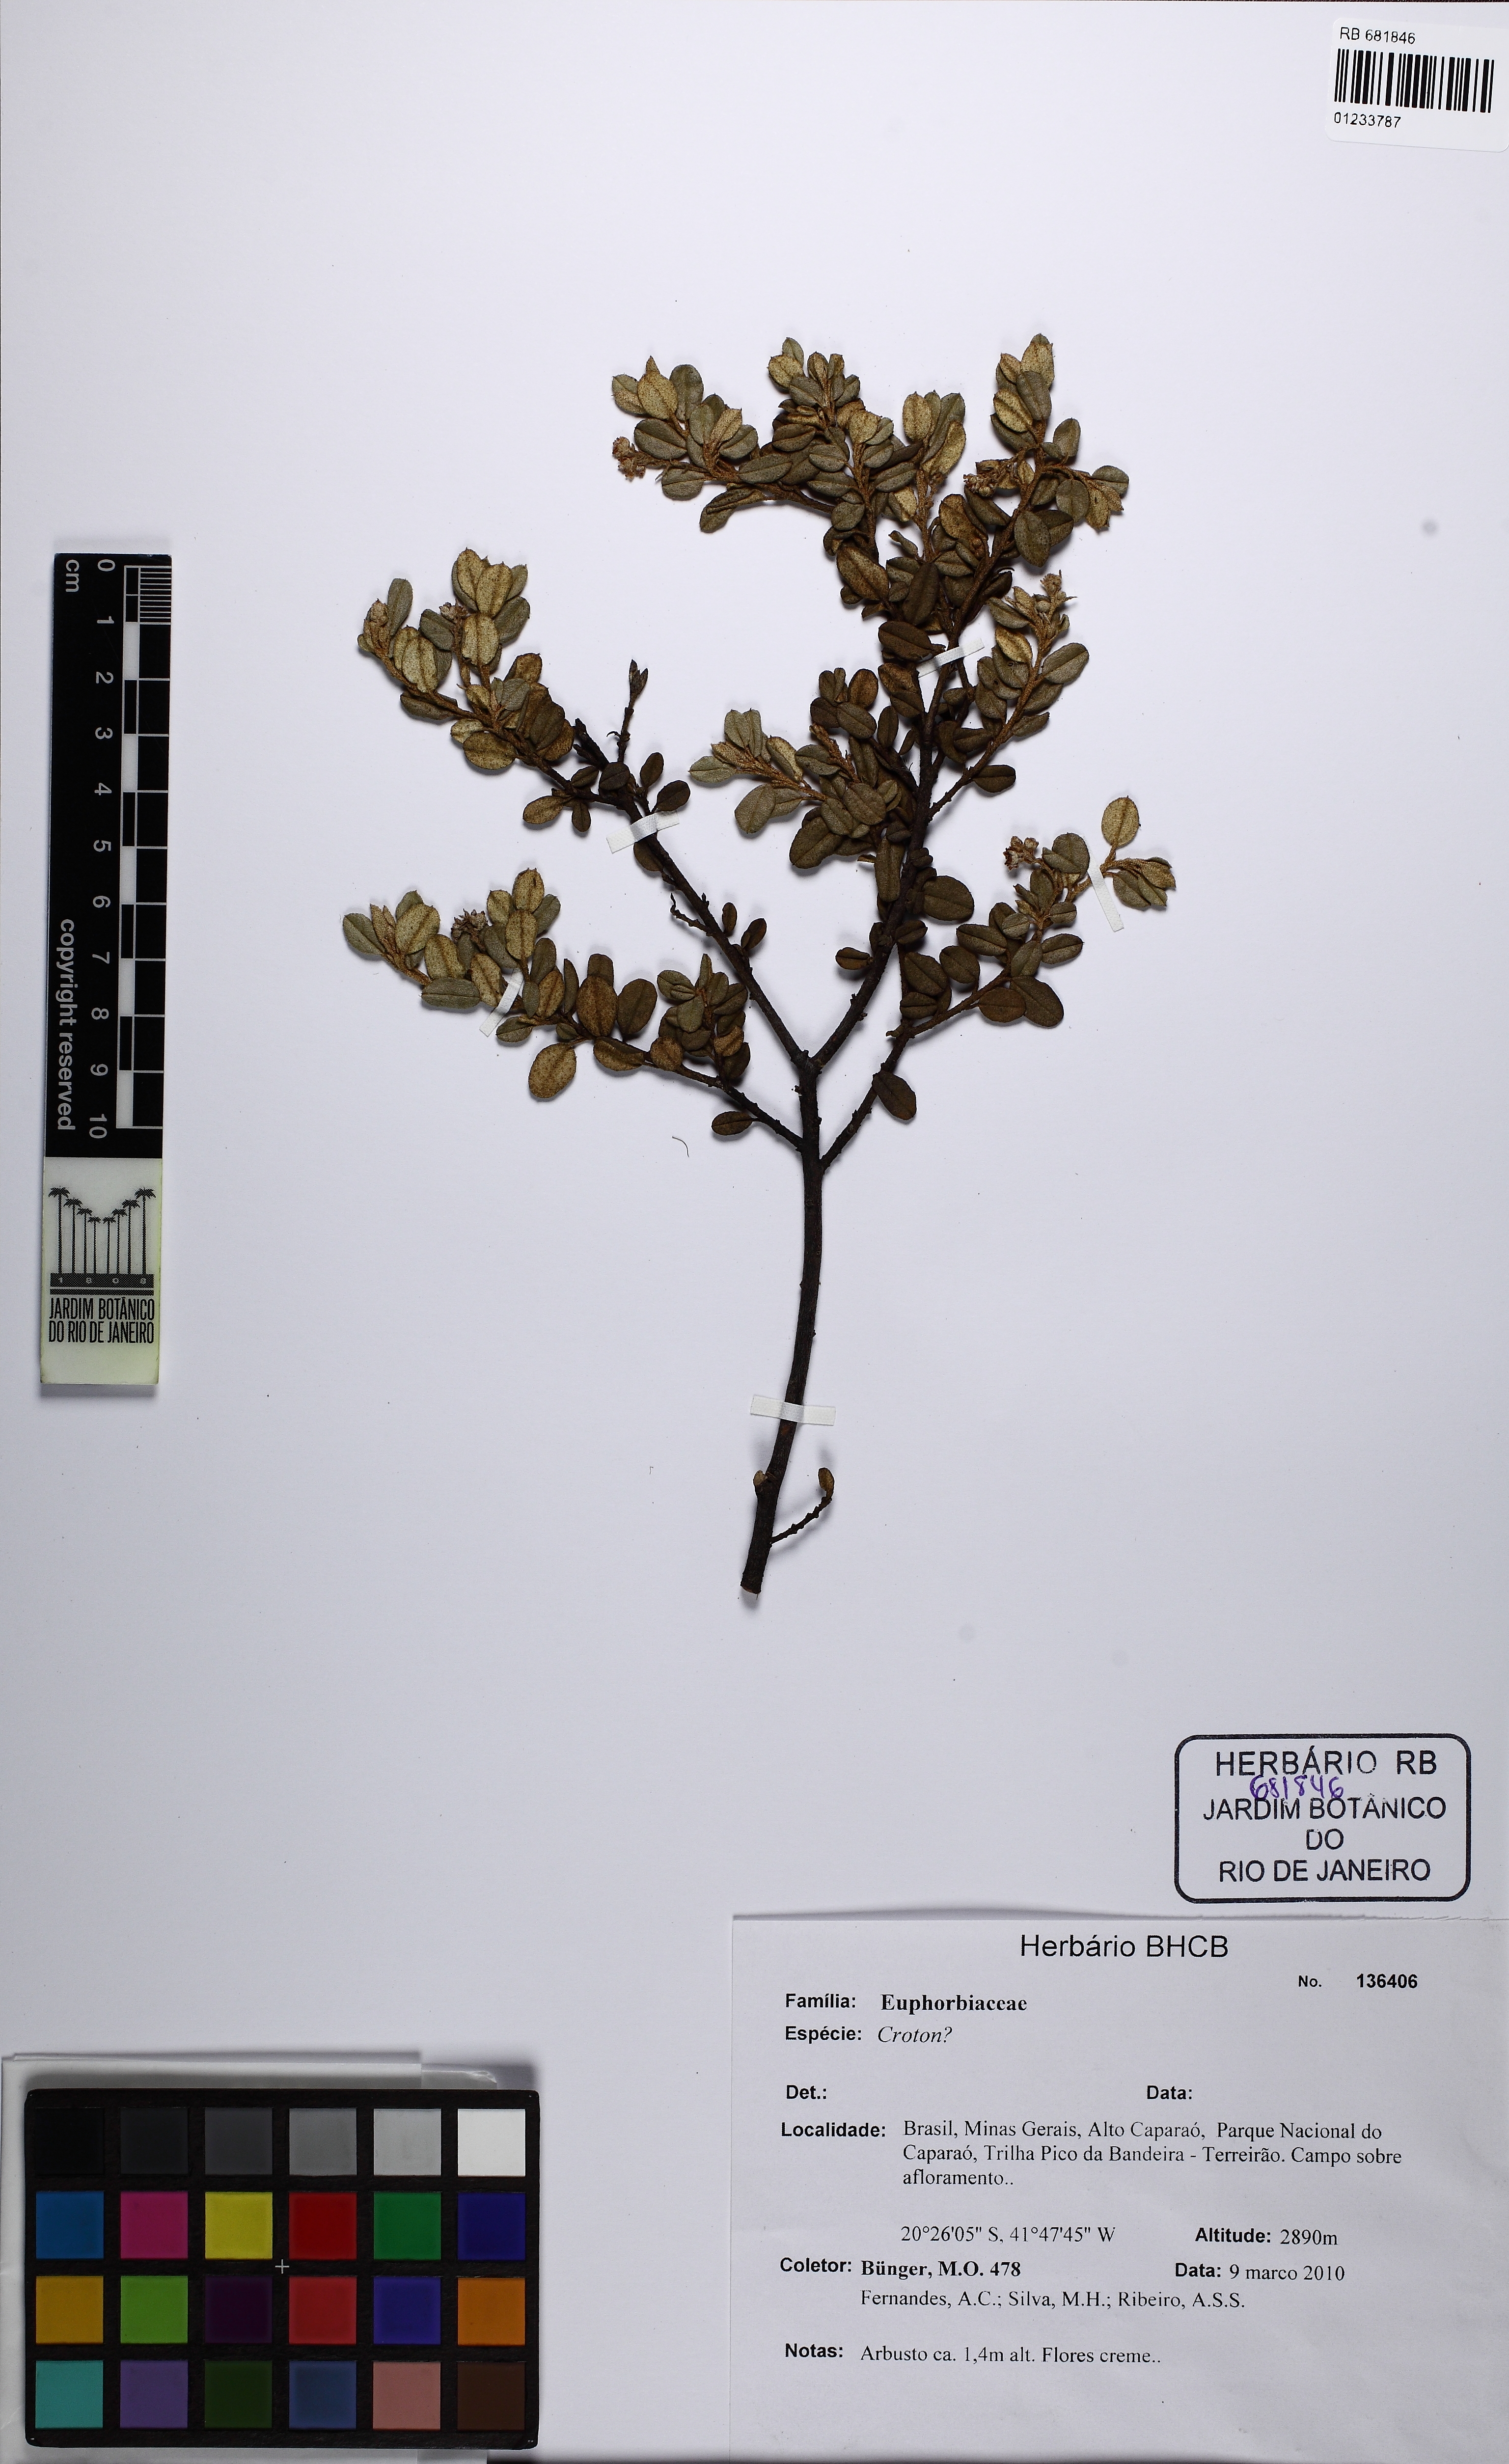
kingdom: Plantae
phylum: Tracheophyta
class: Magnoliopsida
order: Malpighiales
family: Euphorbiaceae
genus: Croton
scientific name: Croton erythroxyloides
